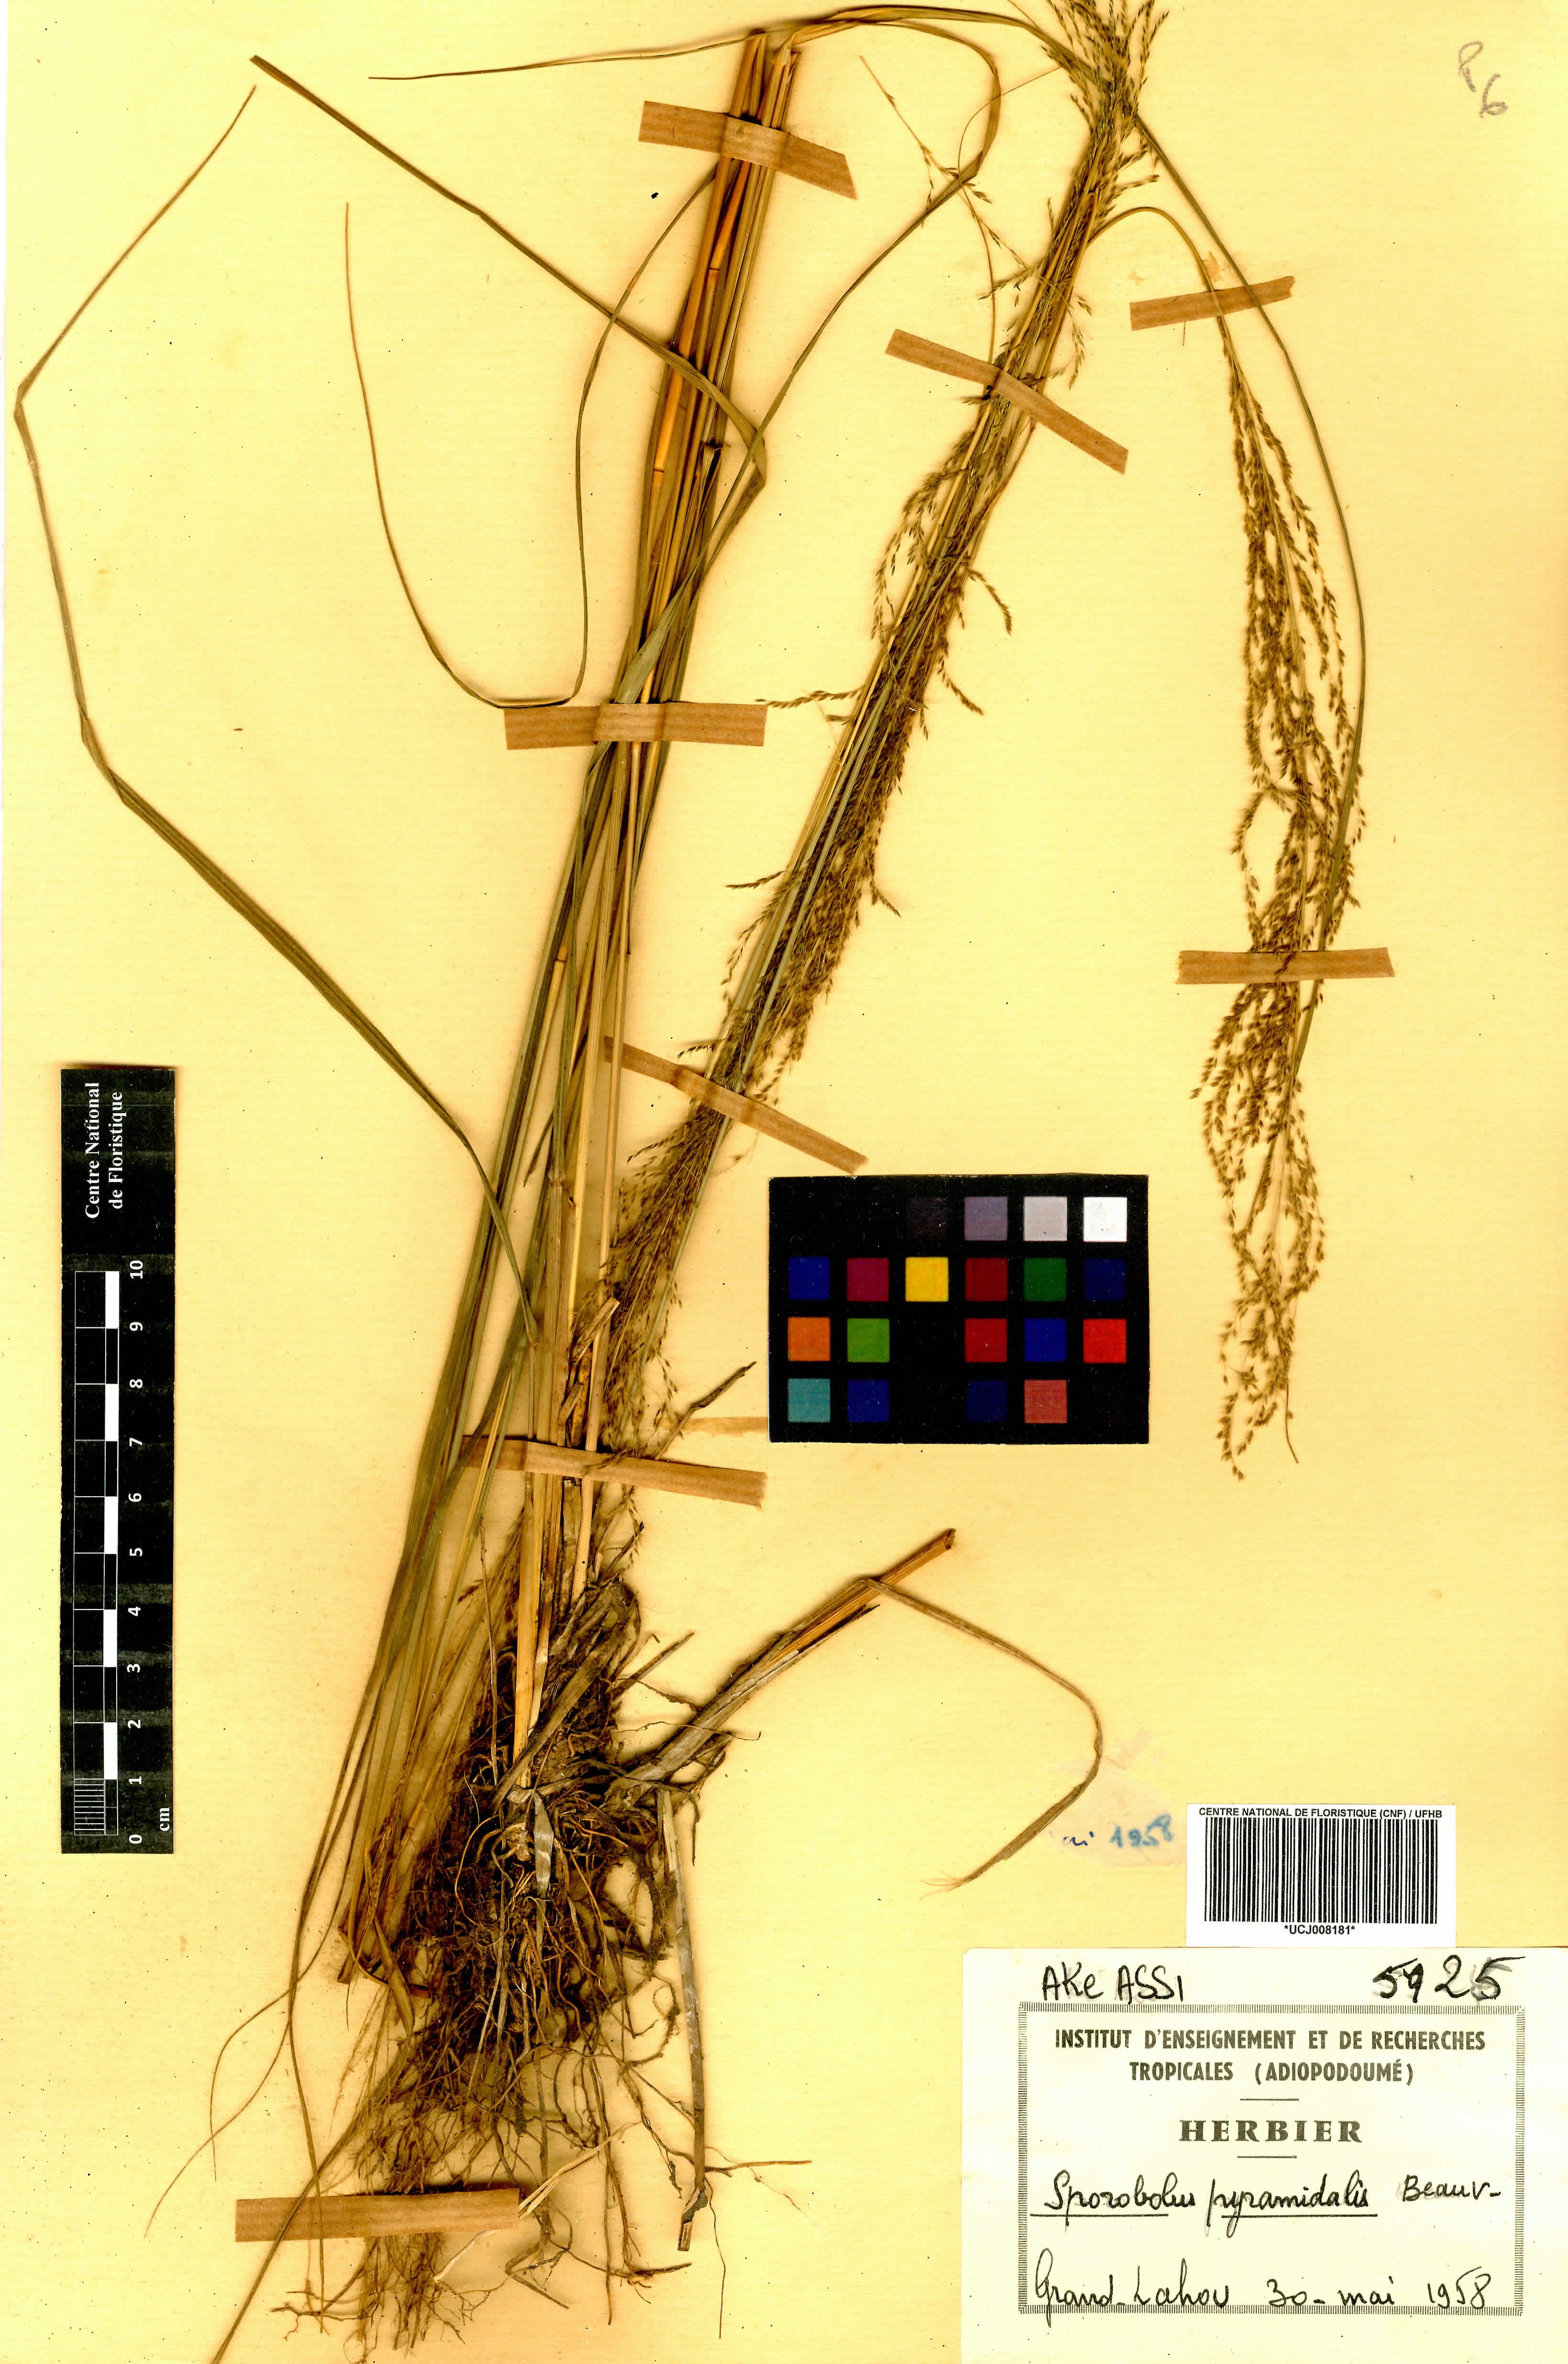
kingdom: Plantae
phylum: Tracheophyta
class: Liliopsida
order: Poales
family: Poaceae
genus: Sporobolus
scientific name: Sporobolus pyramidalis
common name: West indian dropseed
